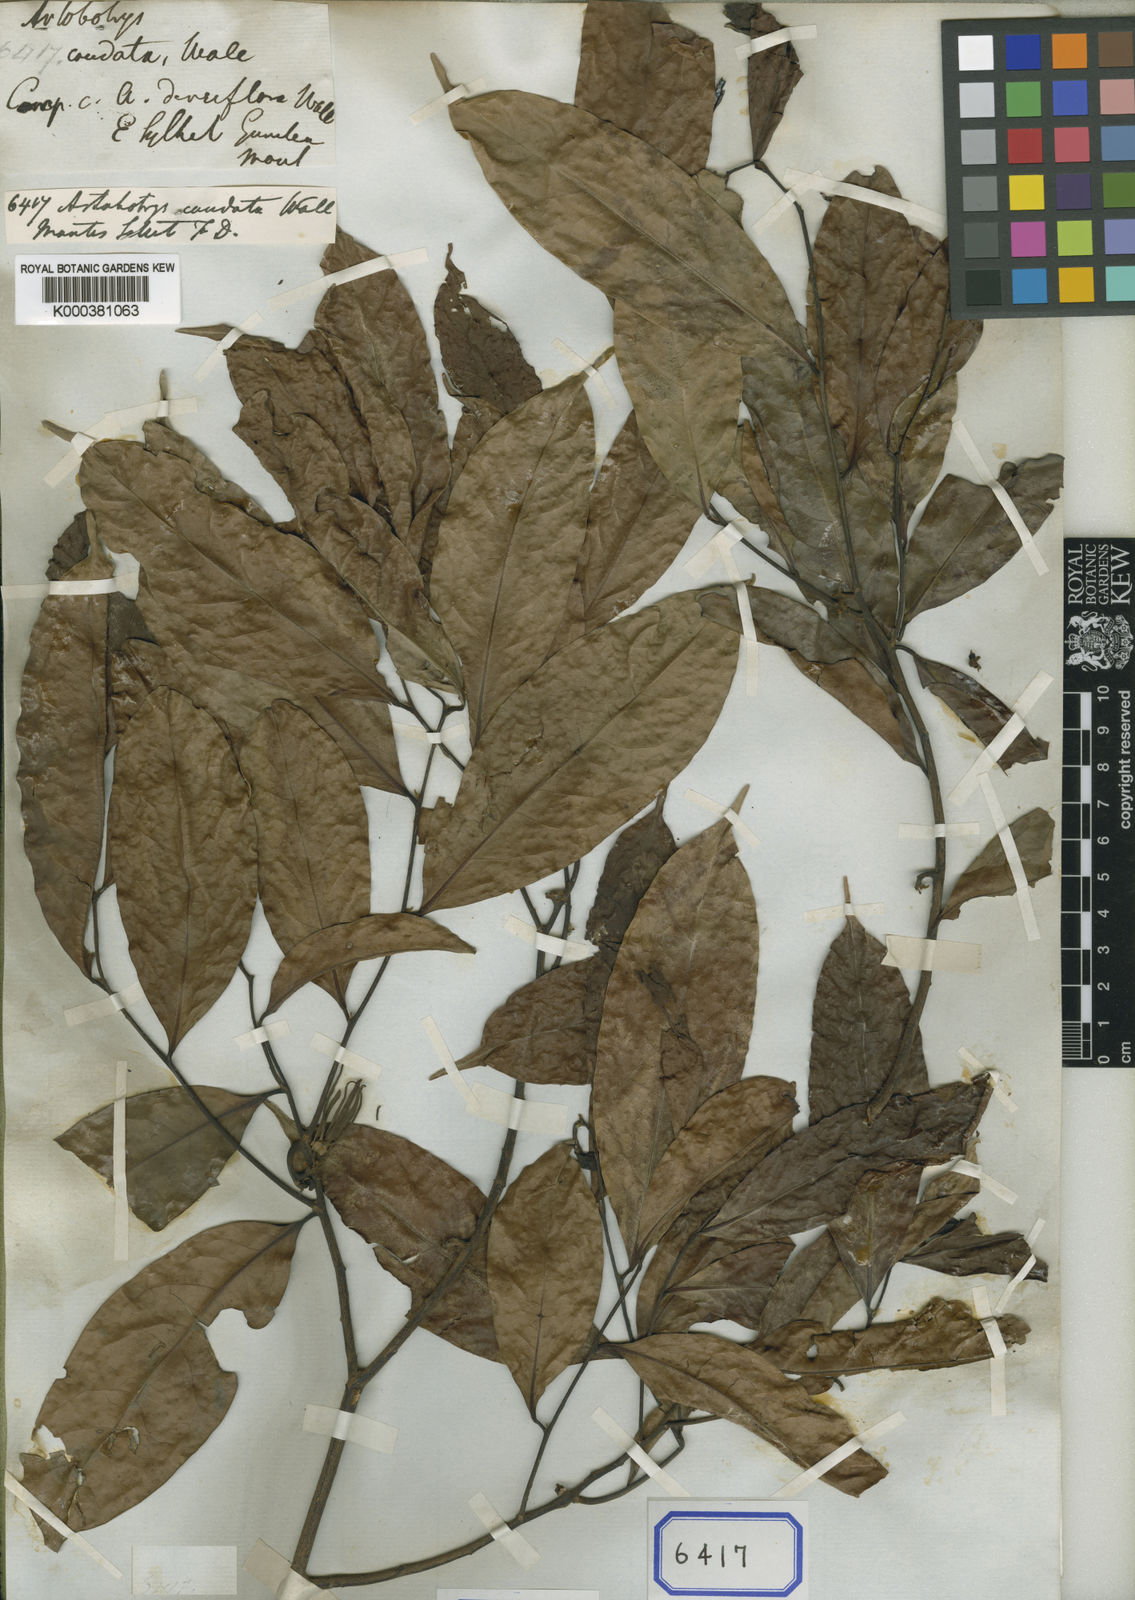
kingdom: Plantae
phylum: Tracheophyta
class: Magnoliopsida
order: Magnoliales
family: Annonaceae
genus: Artabotrys
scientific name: Artabotrys
